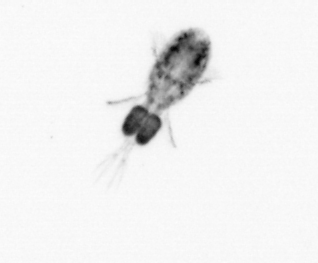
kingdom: Animalia
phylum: Arthropoda
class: Copepoda
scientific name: Copepoda
